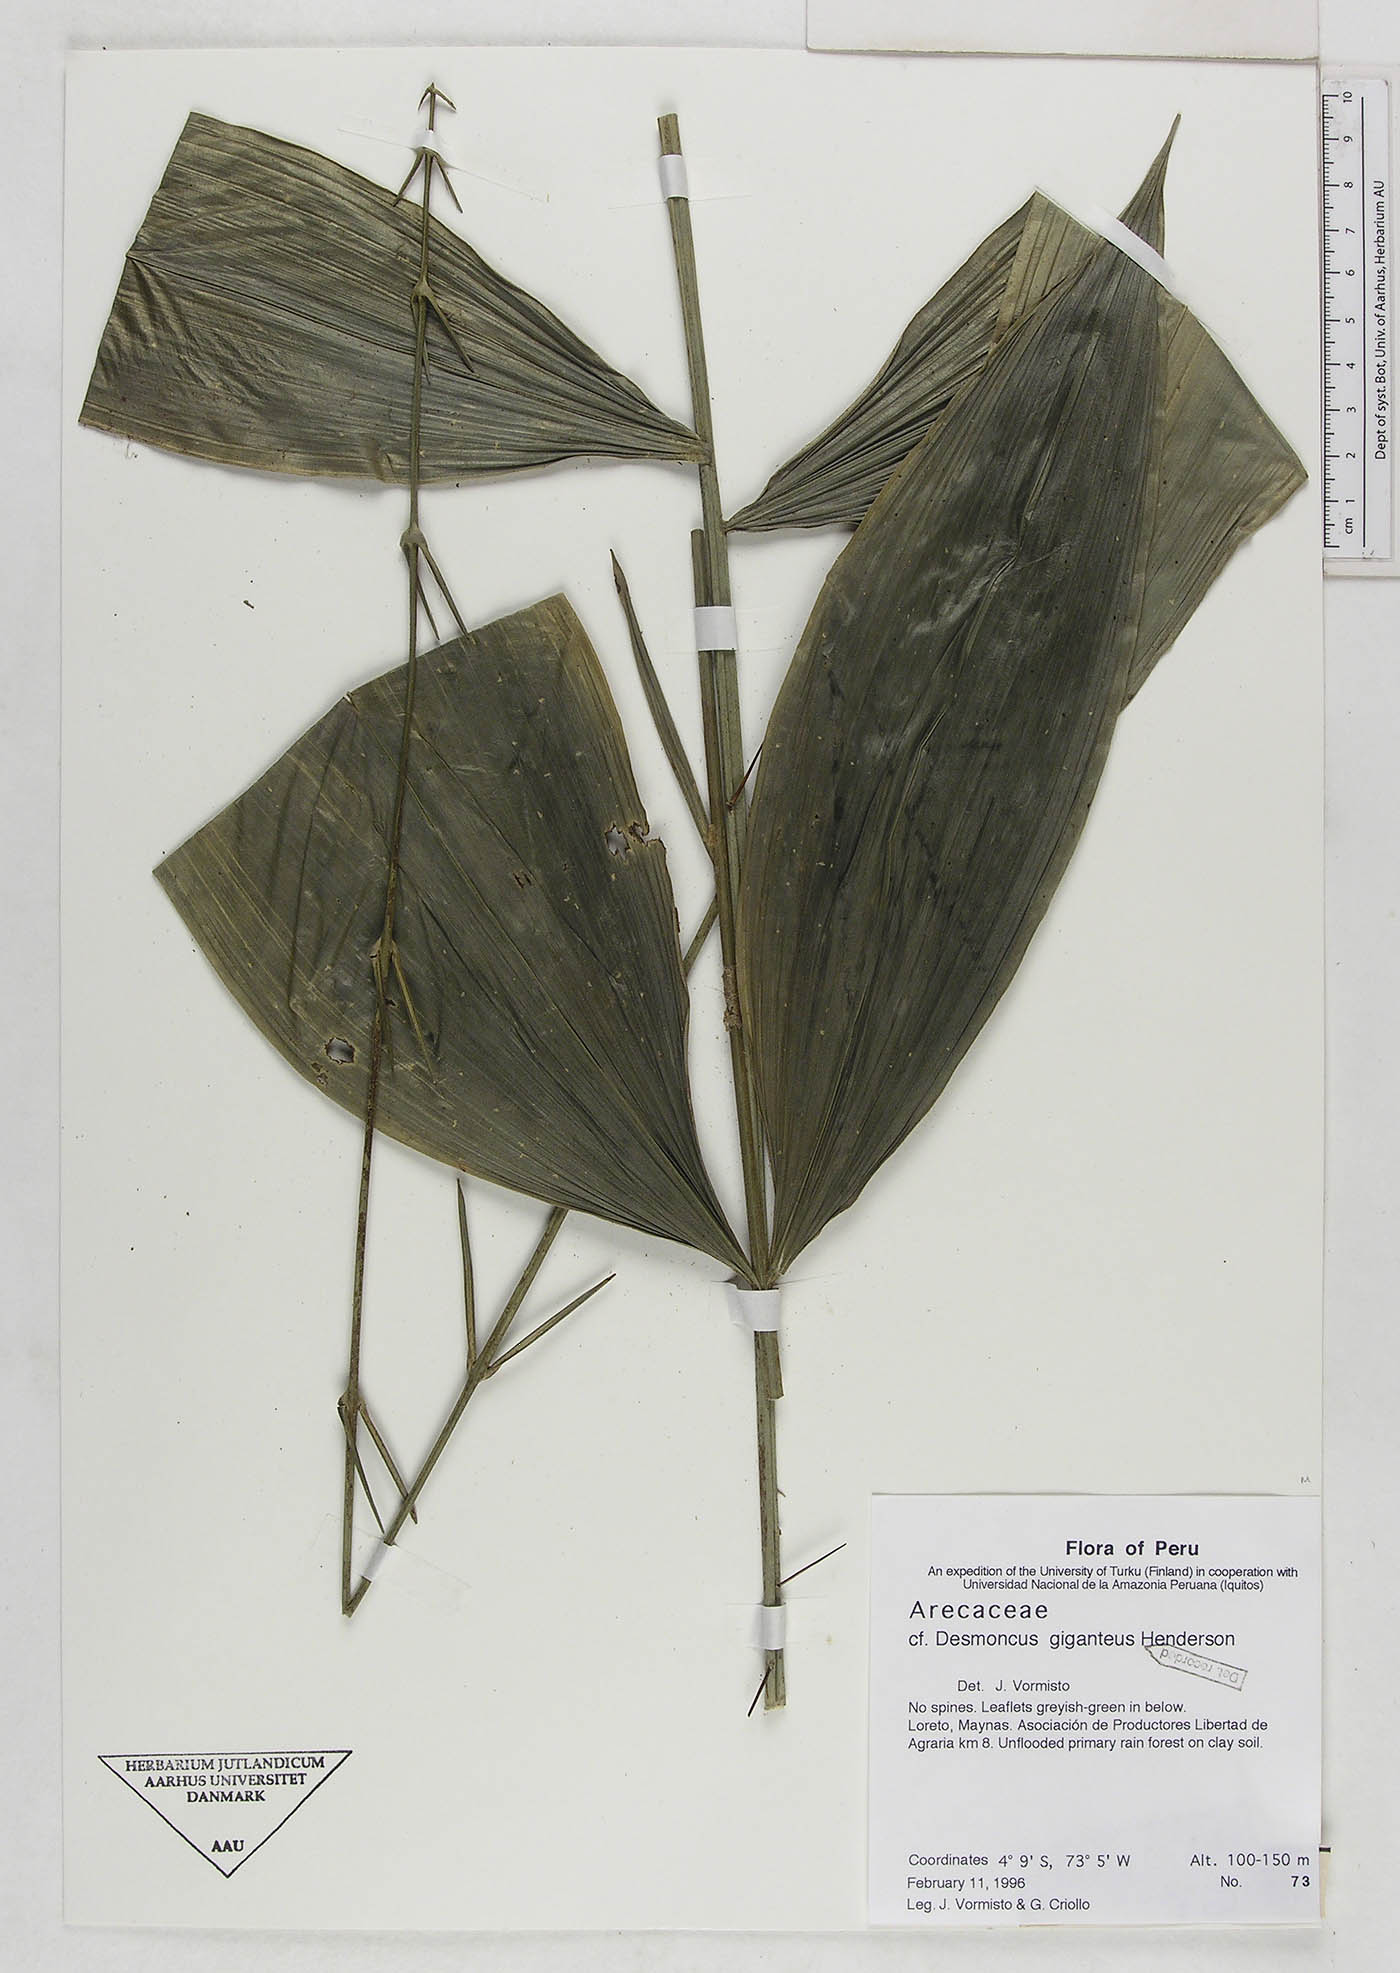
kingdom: Plantae
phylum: Tracheophyta
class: Liliopsida
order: Arecales
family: Arecaceae
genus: Desmoncus
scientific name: Desmoncus giganteus
